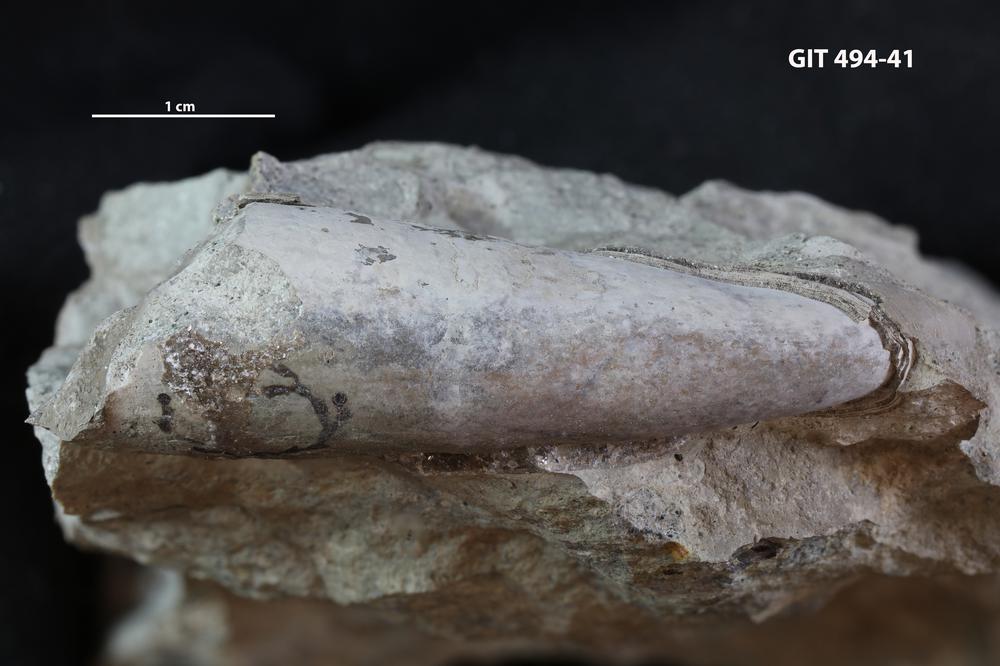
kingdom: Animalia
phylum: Mollusca
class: Cephalopoda
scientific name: Cephalopoda
